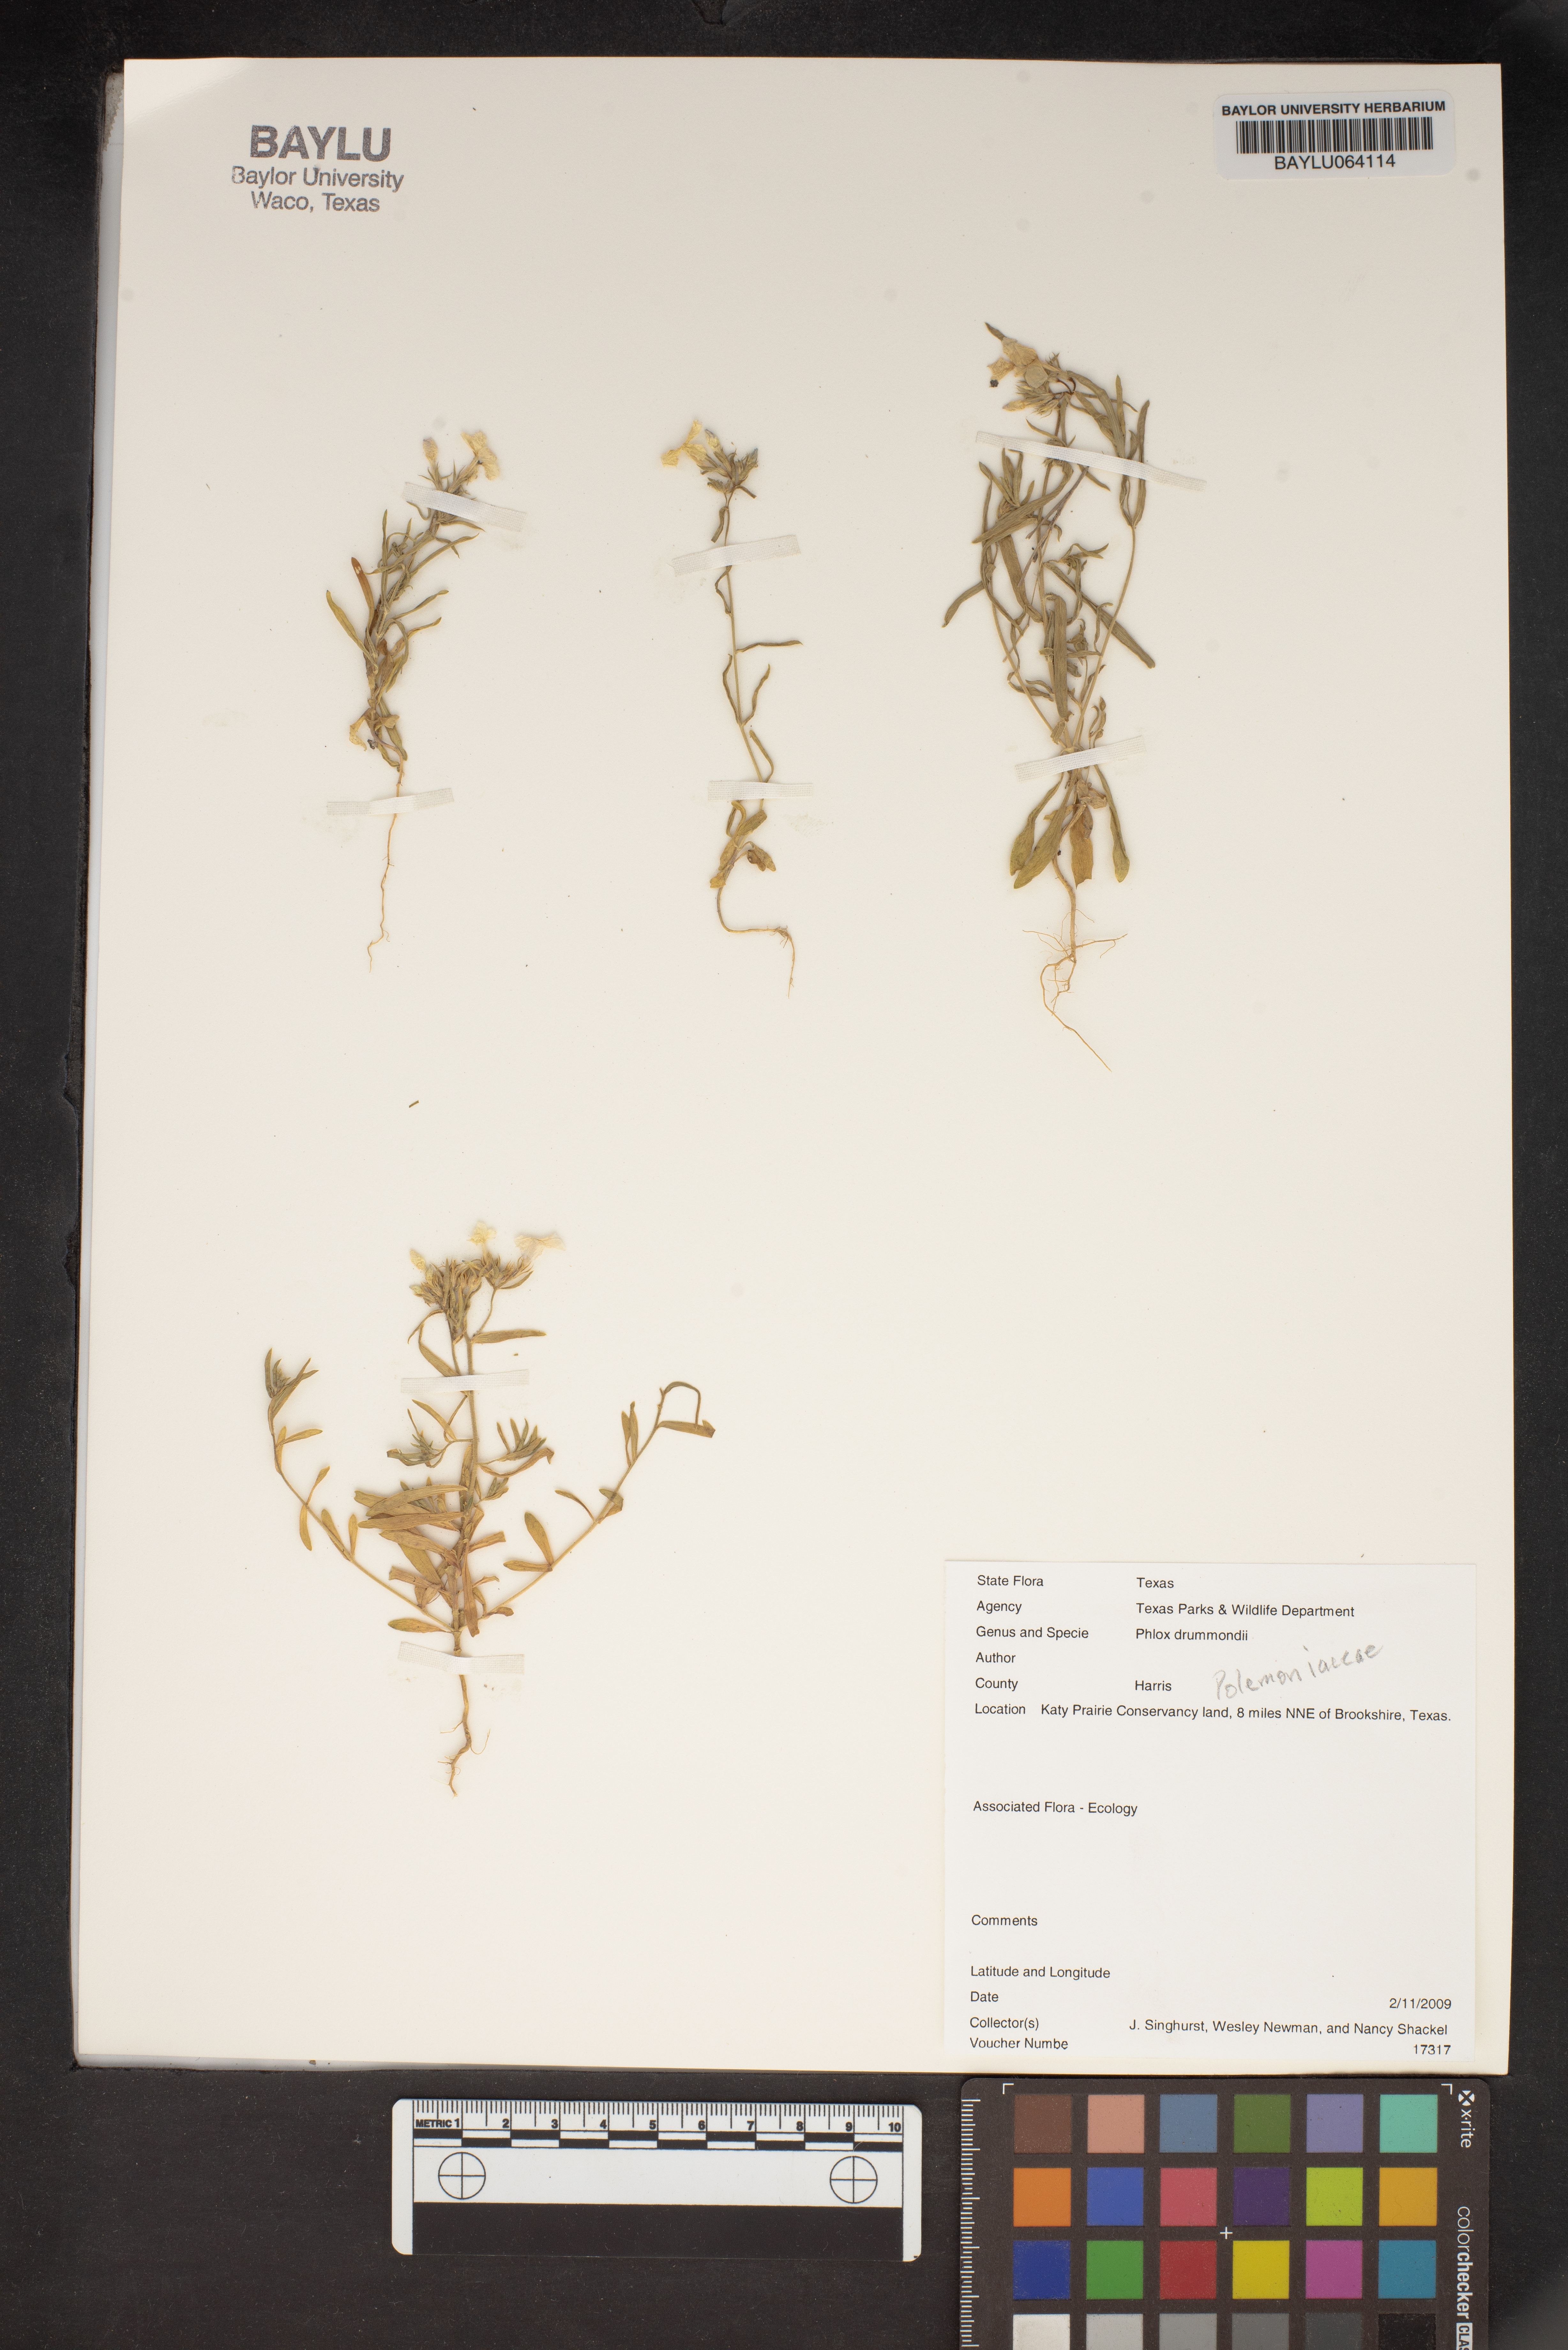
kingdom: Plantae
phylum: Tracheophyta
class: Magnoliopsida
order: Ericales
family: Polemoniaceae
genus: Phlox
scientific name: Phlox drummondii
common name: Drummond's phlox
